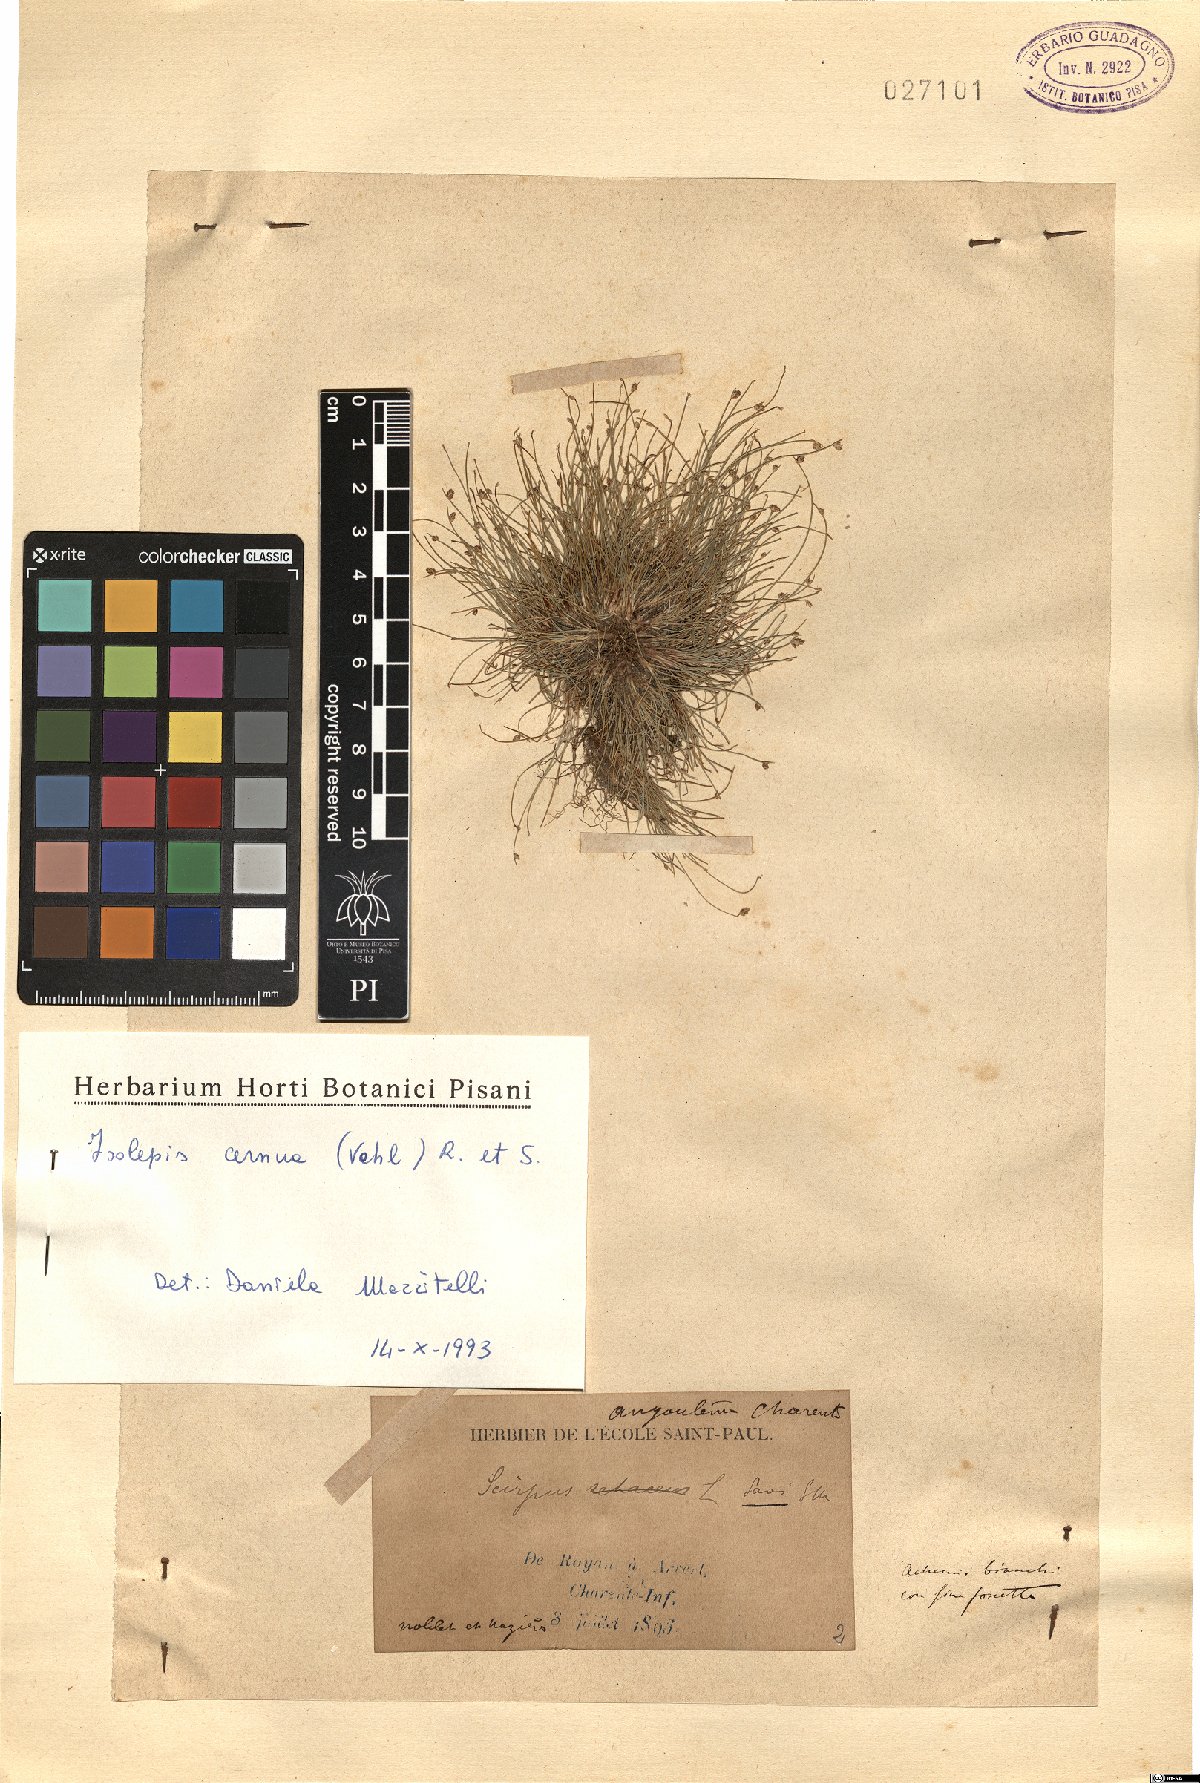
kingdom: Plantae
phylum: Tracheophyta
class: Liliopsida
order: Poales
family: Cyperaceae
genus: Isolepis
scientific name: Isolepis cernua
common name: Slender club-rush
